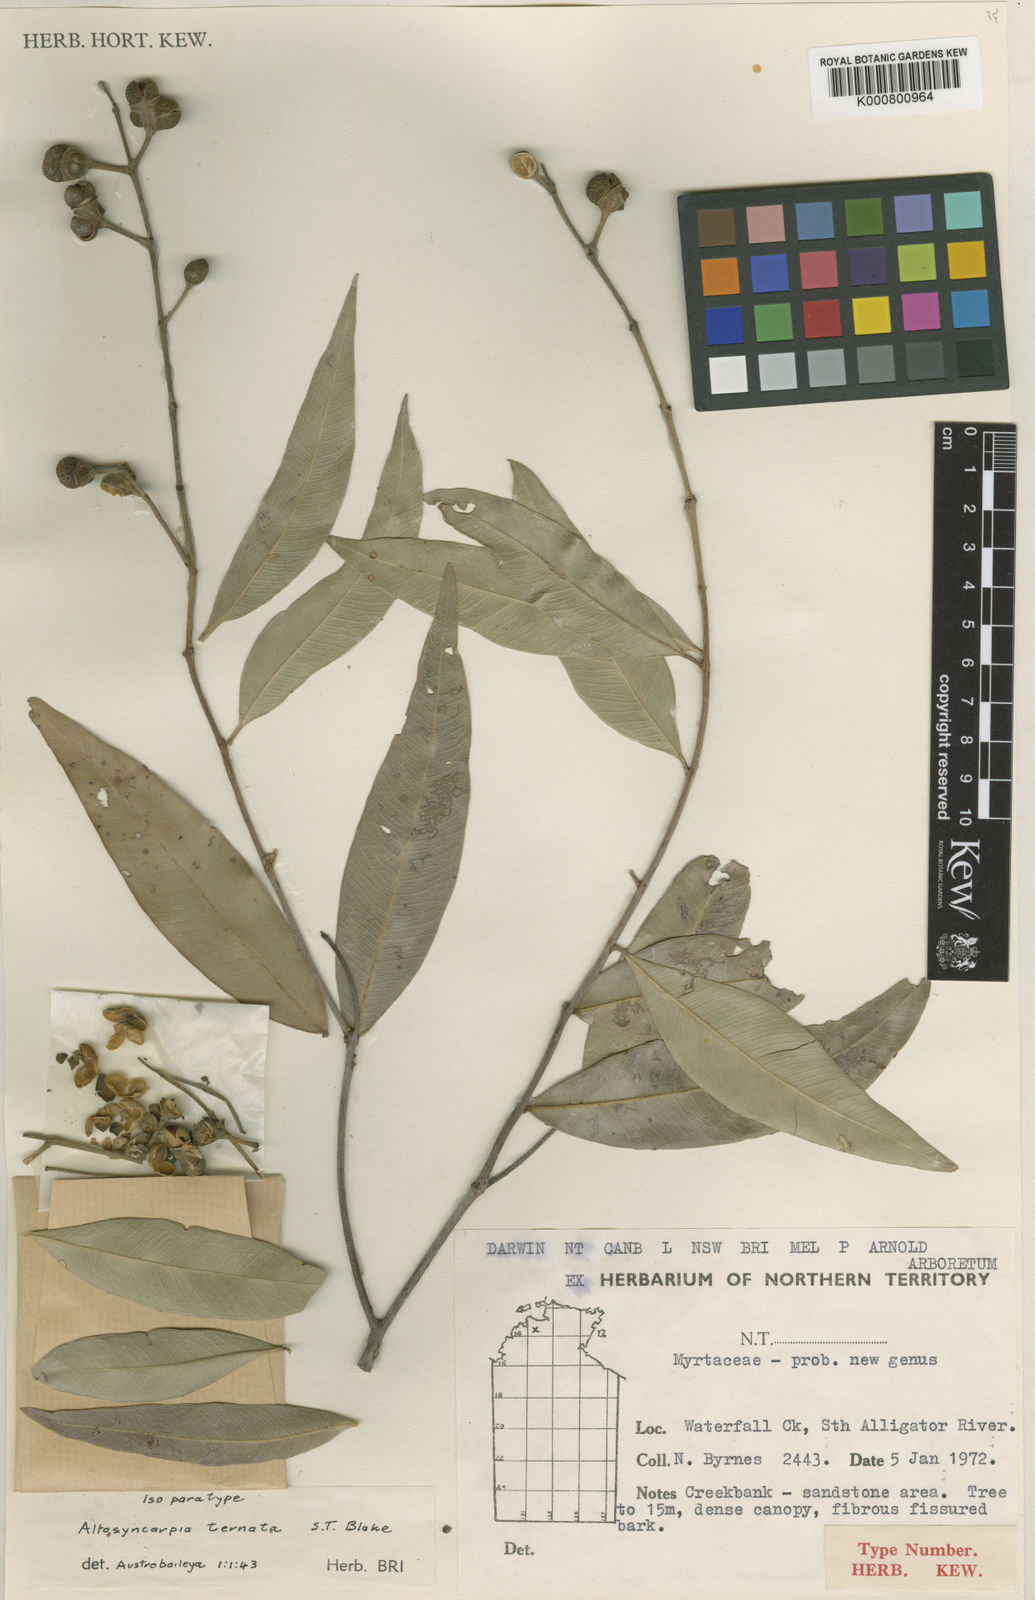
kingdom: Plantae
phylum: Tracheophyta
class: Magnoliopsida
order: Myrtales
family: Myrtaceae
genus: Allosyncarpia
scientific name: Allosyncarpia ternata
